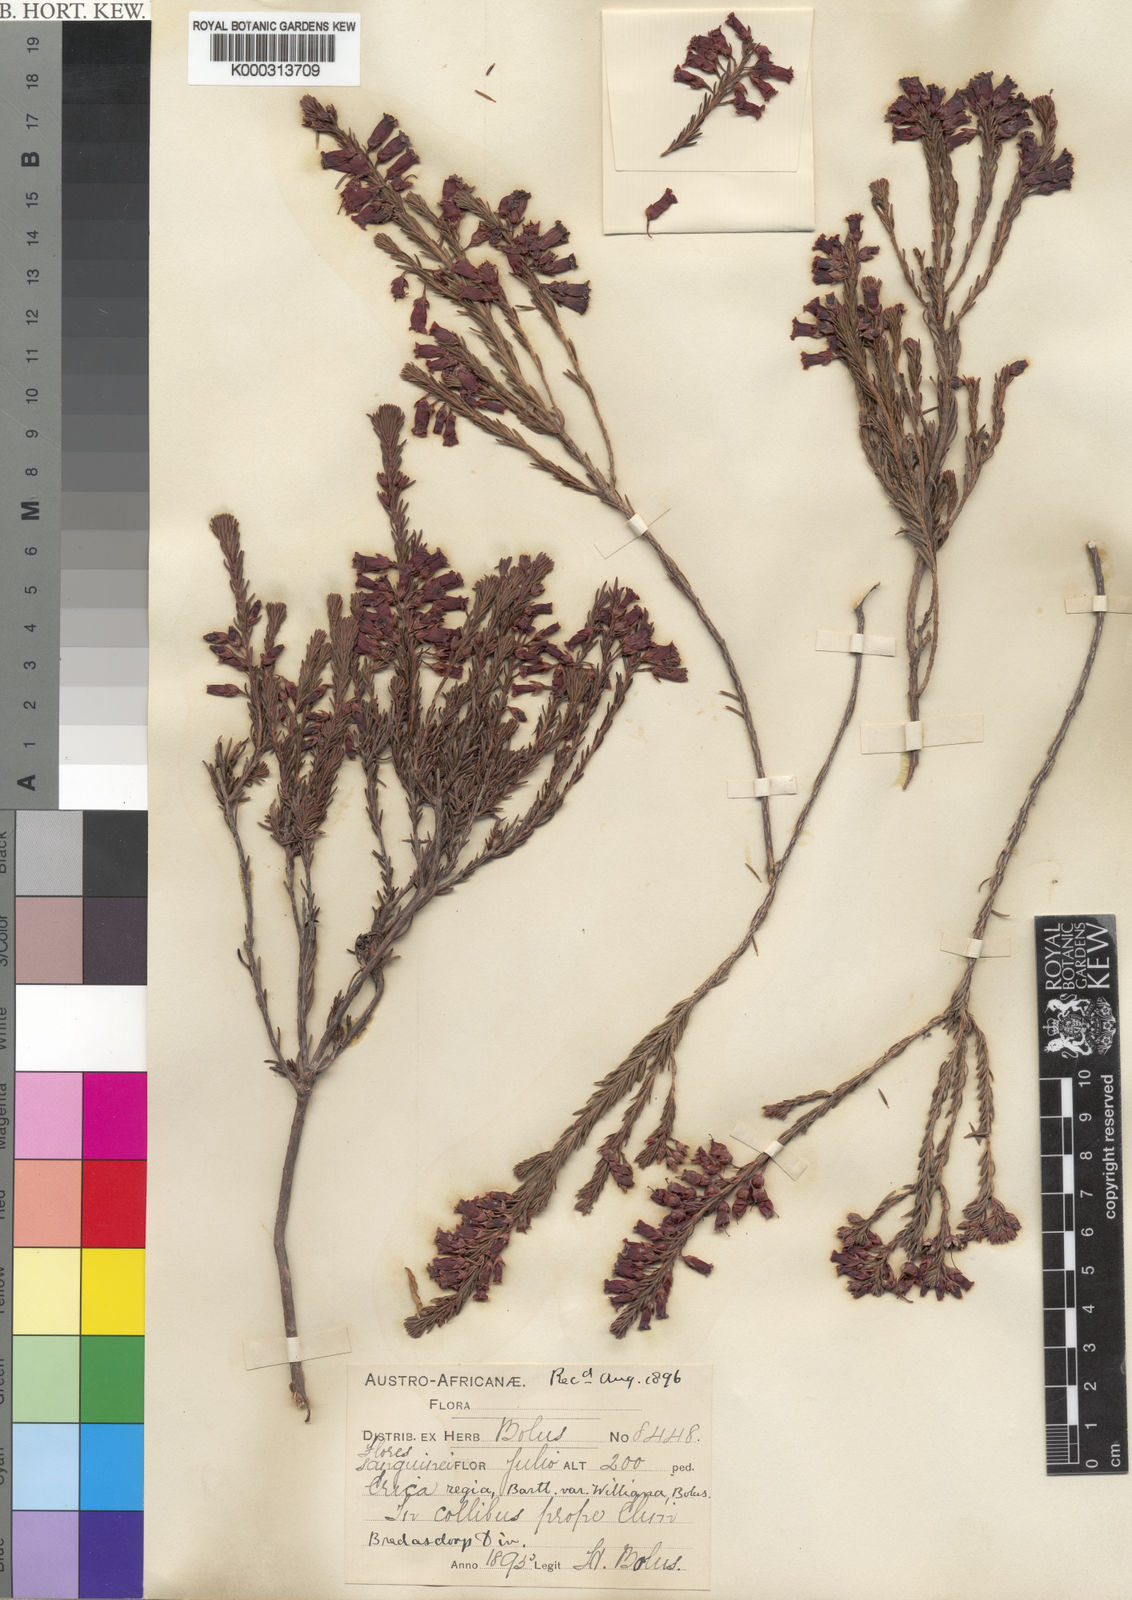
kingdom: Plantae
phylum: Tracheophyta
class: Magnoliopsida
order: Ericales
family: Ericaceae
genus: Erica
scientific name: Erica regia
